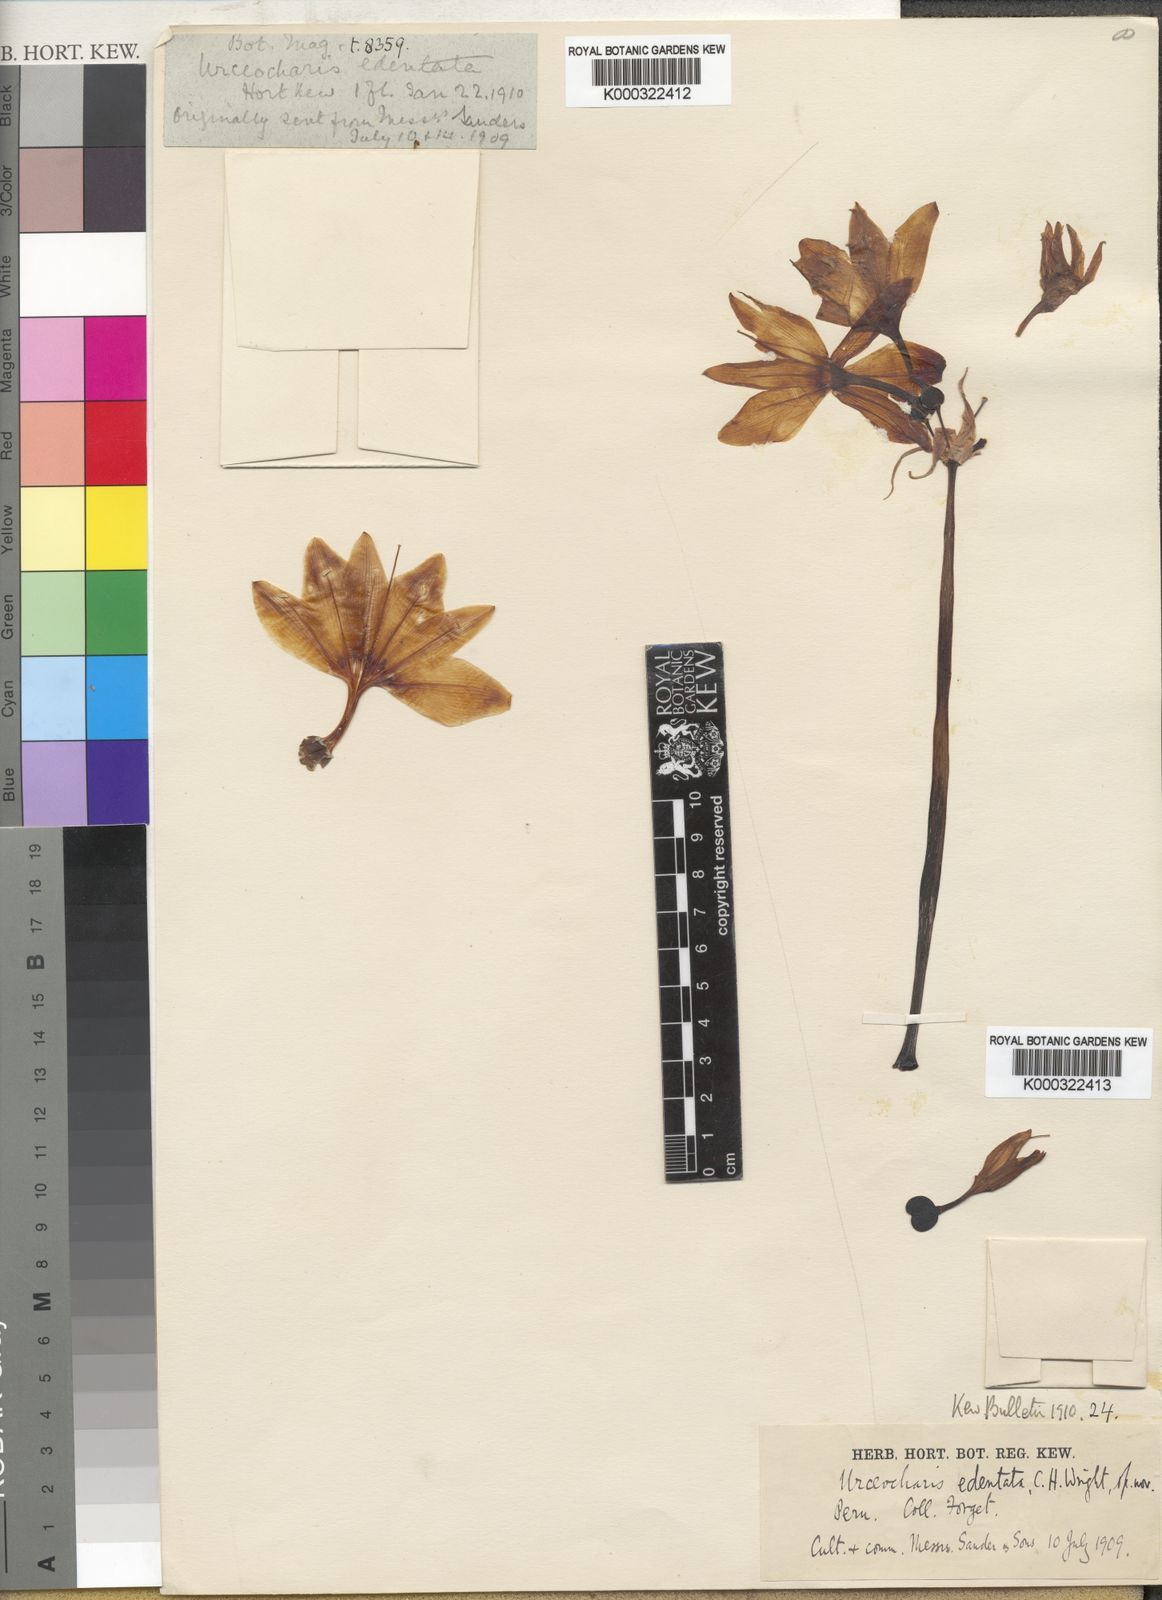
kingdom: Plantae
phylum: Tracheophyta
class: Liliopsida
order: Asparagales
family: Amaryllidaceae
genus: Urceocharis
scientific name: Urceocharis edentata
